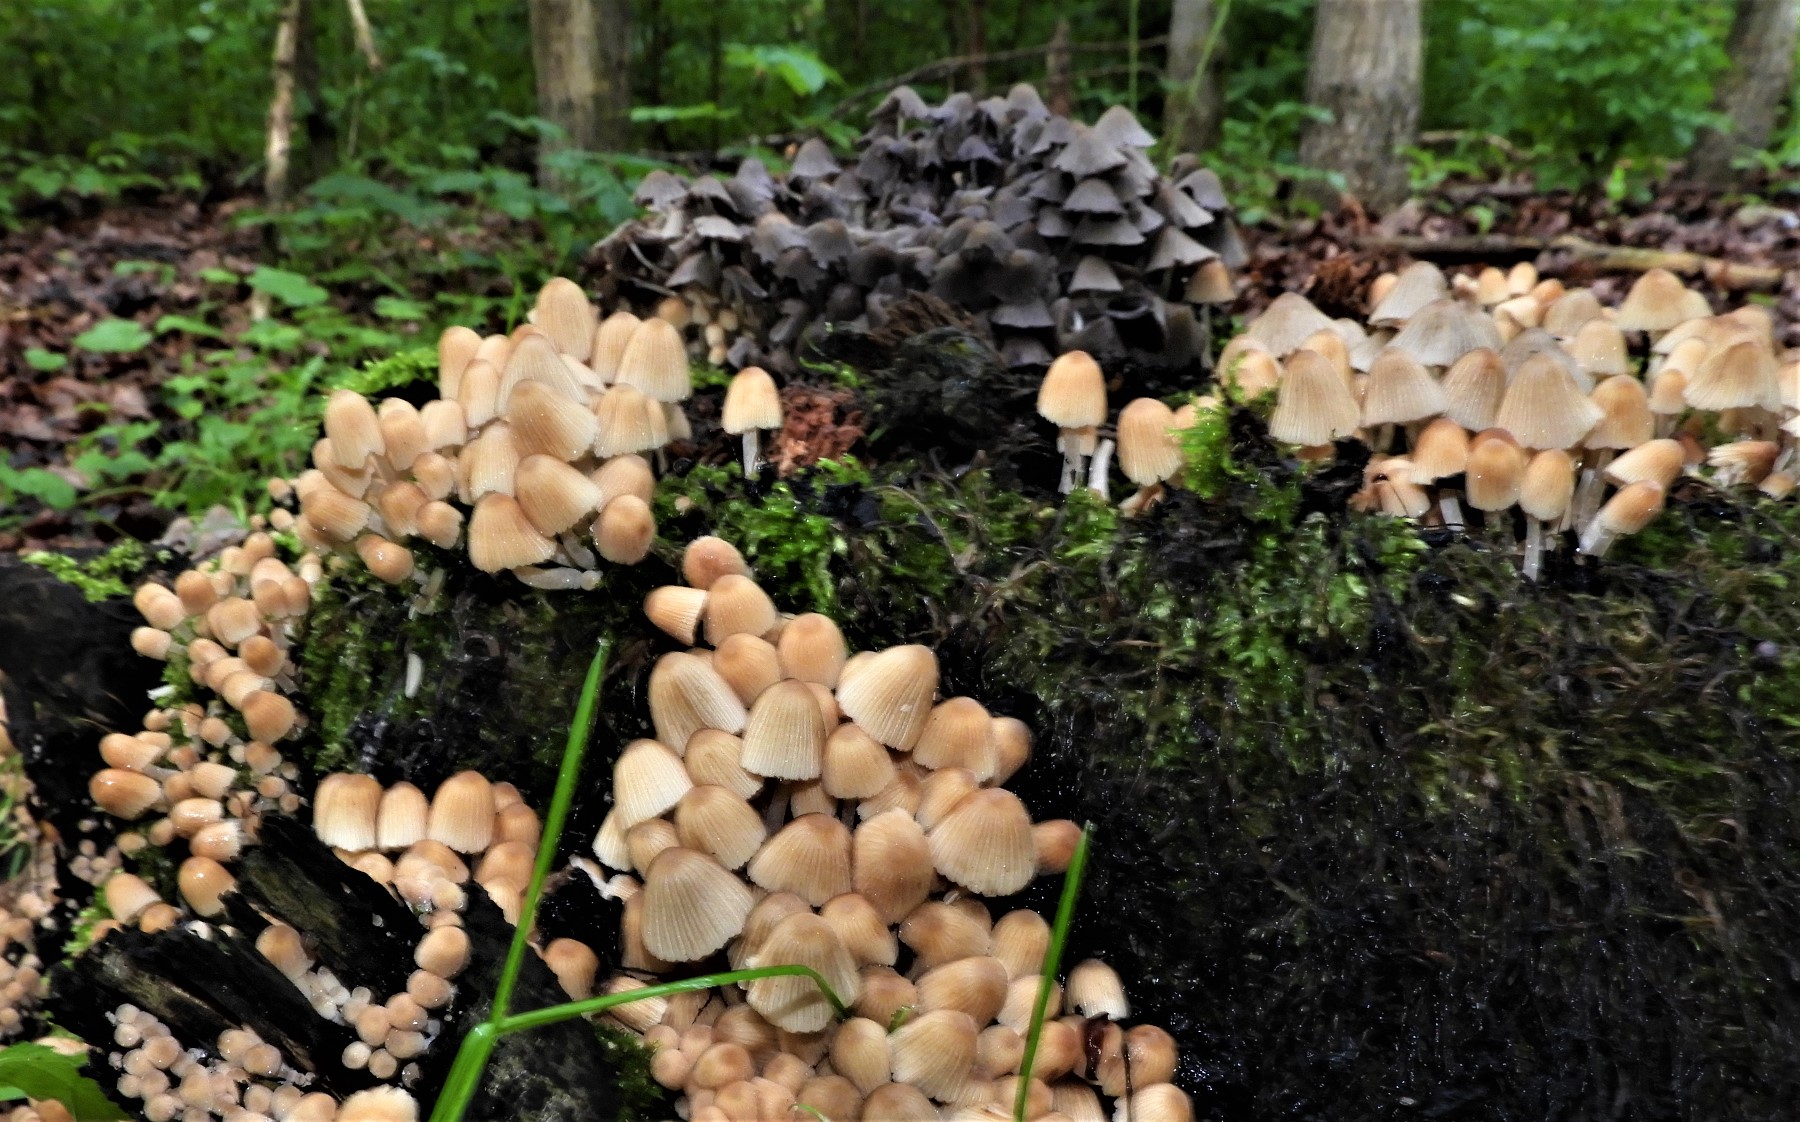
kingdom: Fungi
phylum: Basidiomycota
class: Agaricomycetes
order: Agaricales
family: Psathyrellaceae
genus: Coprinellus
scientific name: Coprinellus disseminatus
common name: bredsået blækhat
